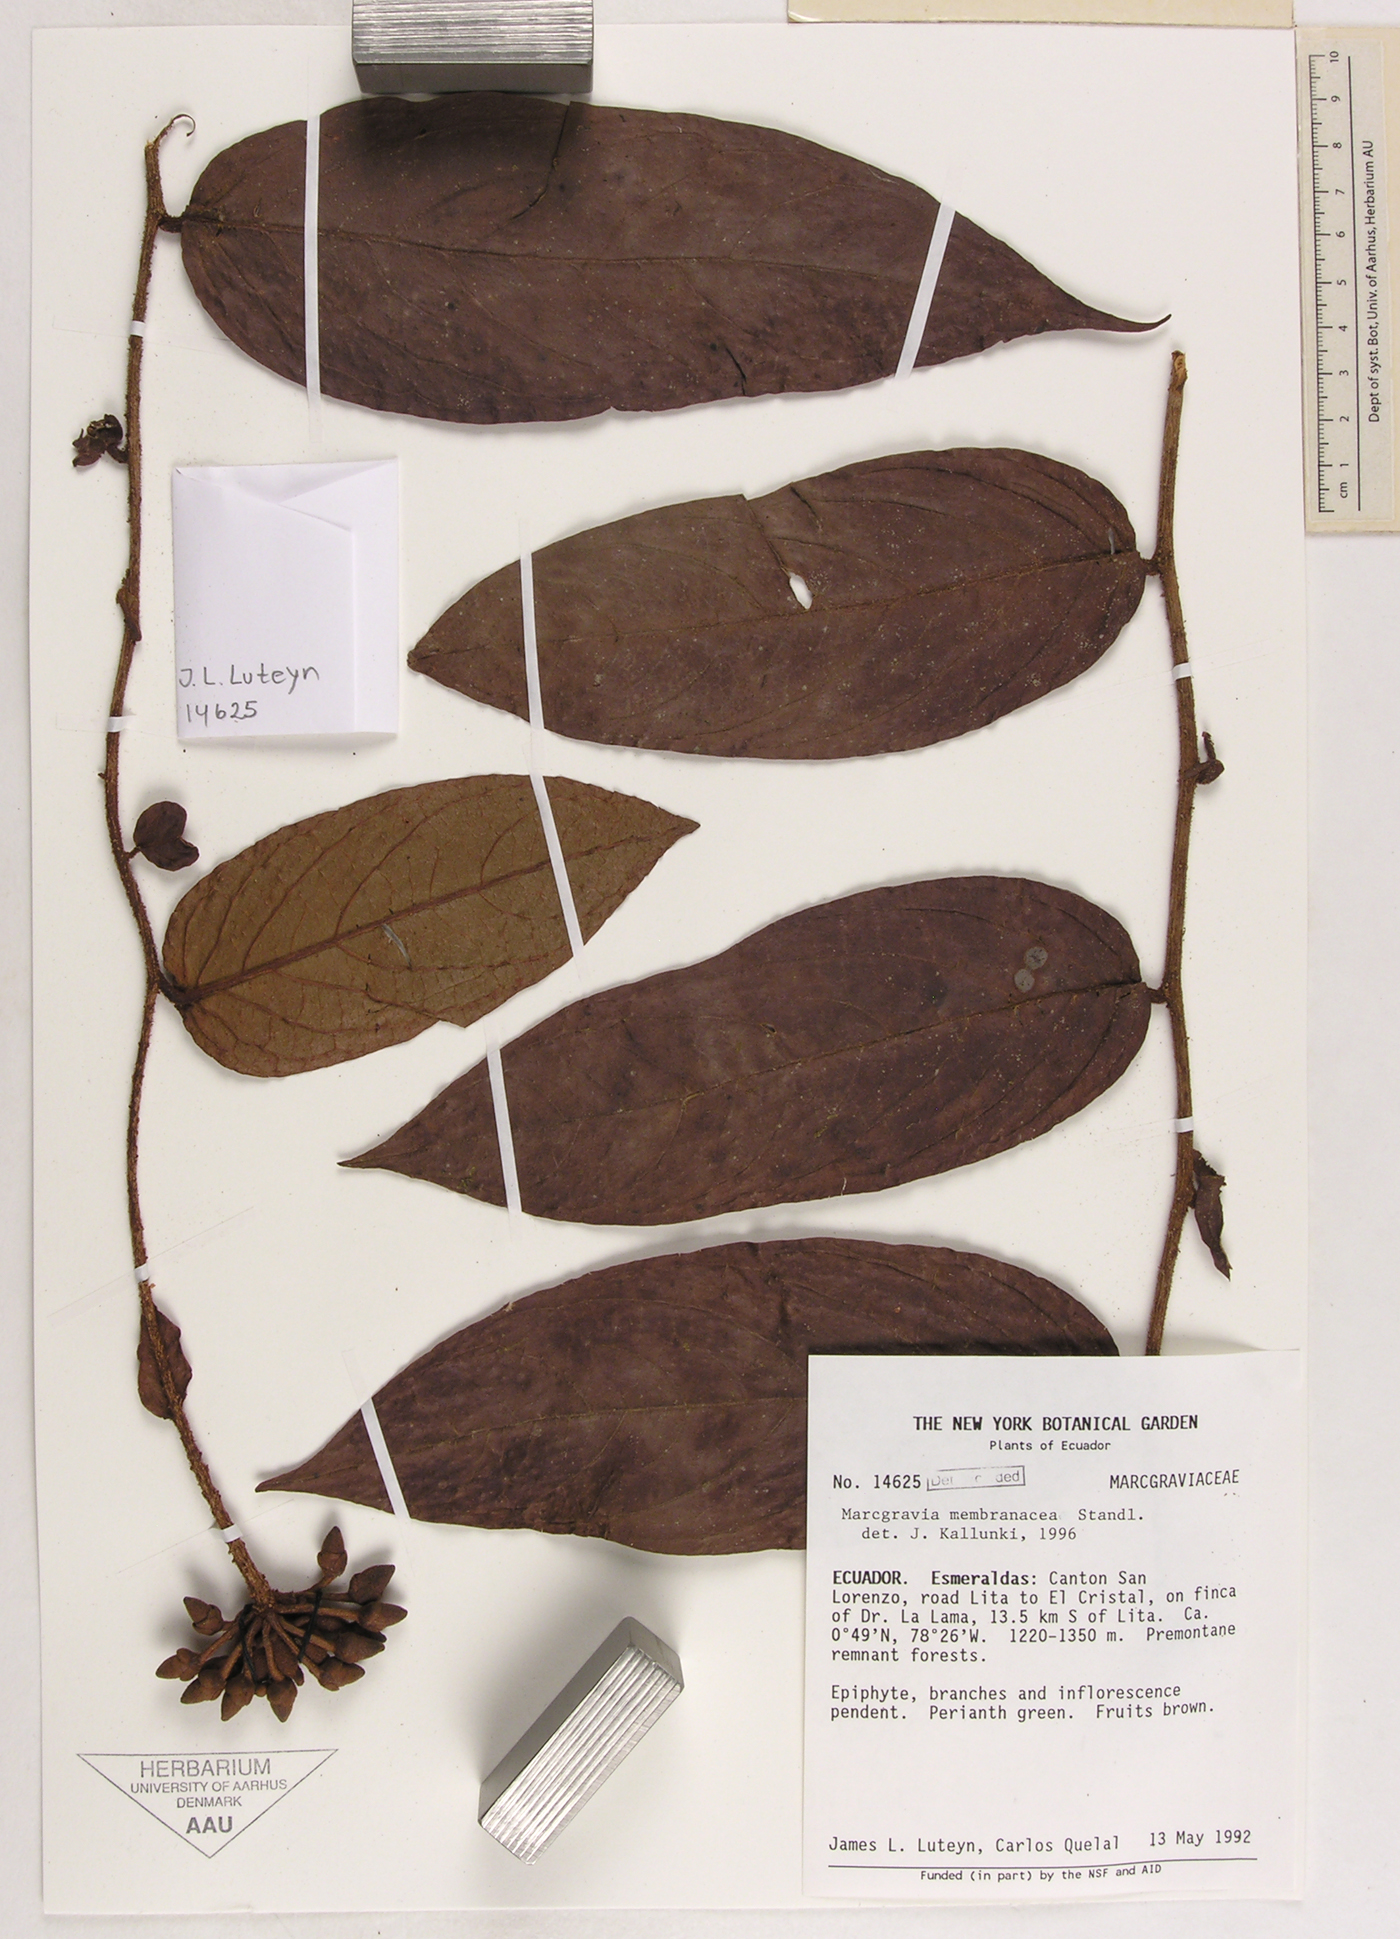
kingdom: Plantae
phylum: Tracheophyta
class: Magnoliopsida
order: Ericales
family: Marcgraviaceae
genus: Marcgravia
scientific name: Marcgravia nervosa
